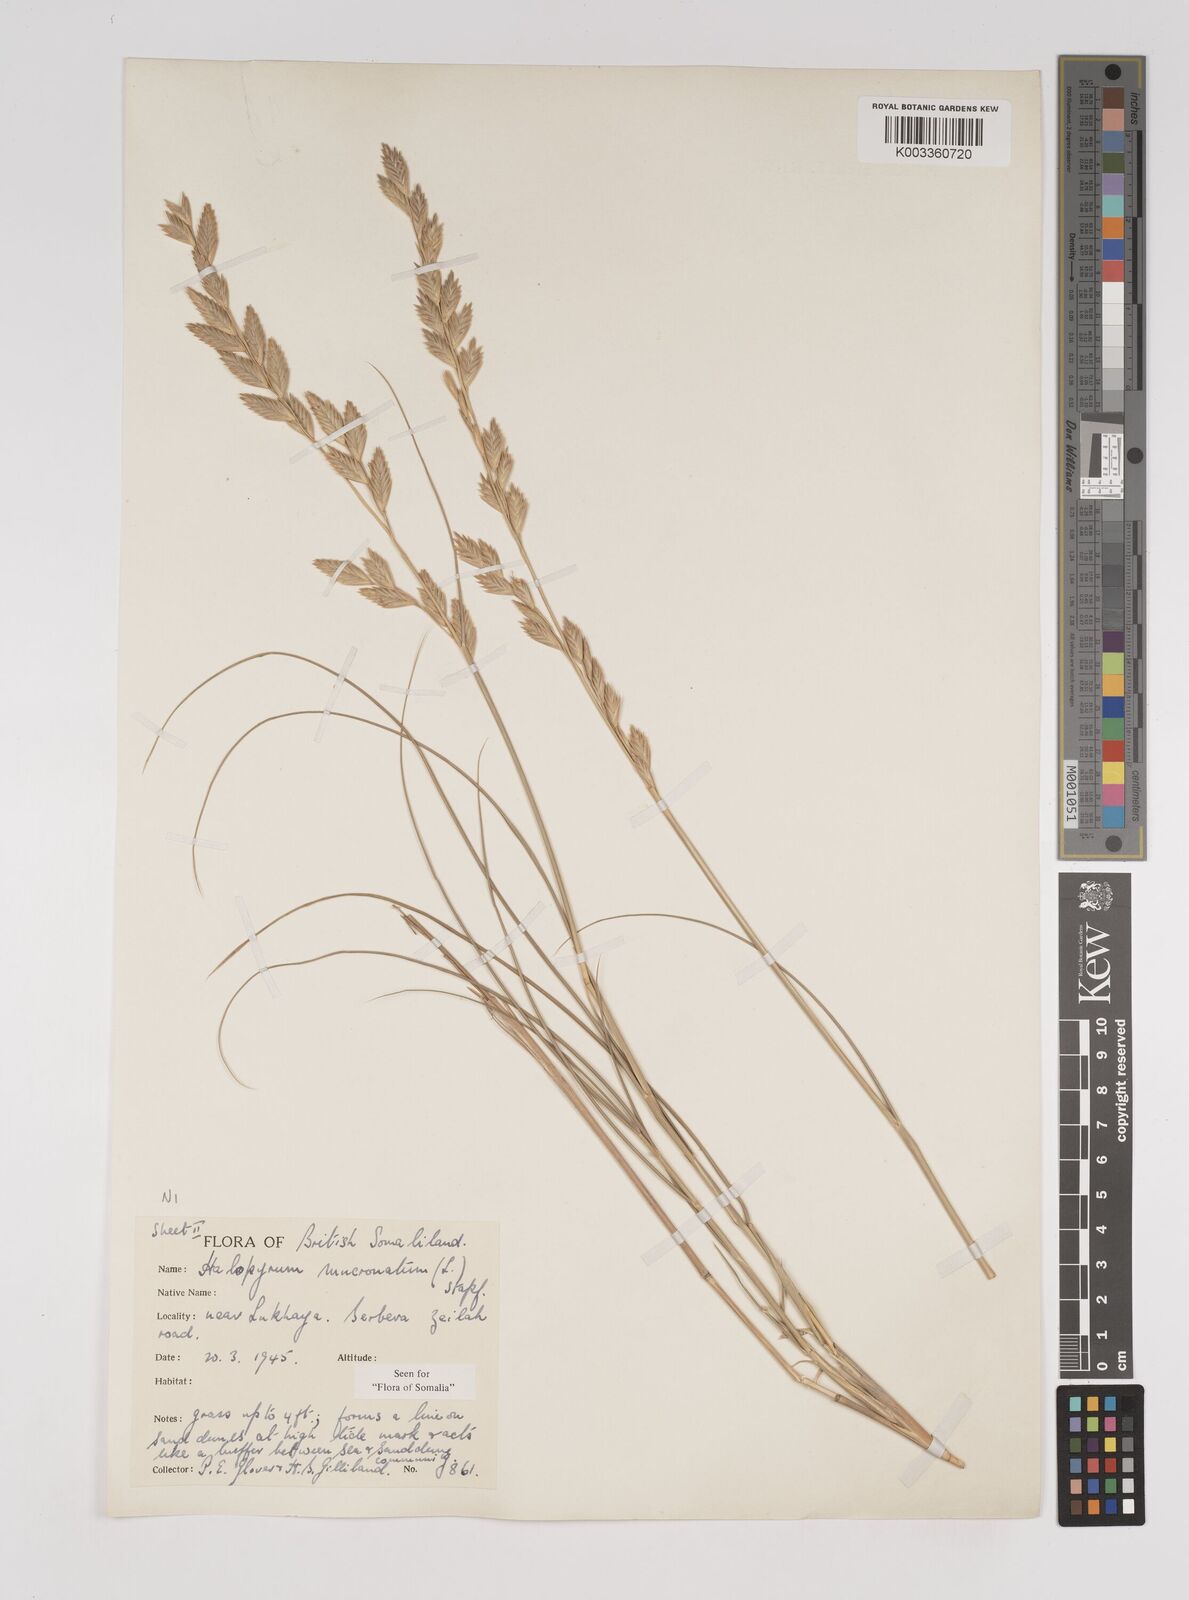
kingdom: Plantae
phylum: Tracheophyta
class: Liliopsida
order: Poales
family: Poaceae
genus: Halopyrum
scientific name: Halopyrum mucronatum
